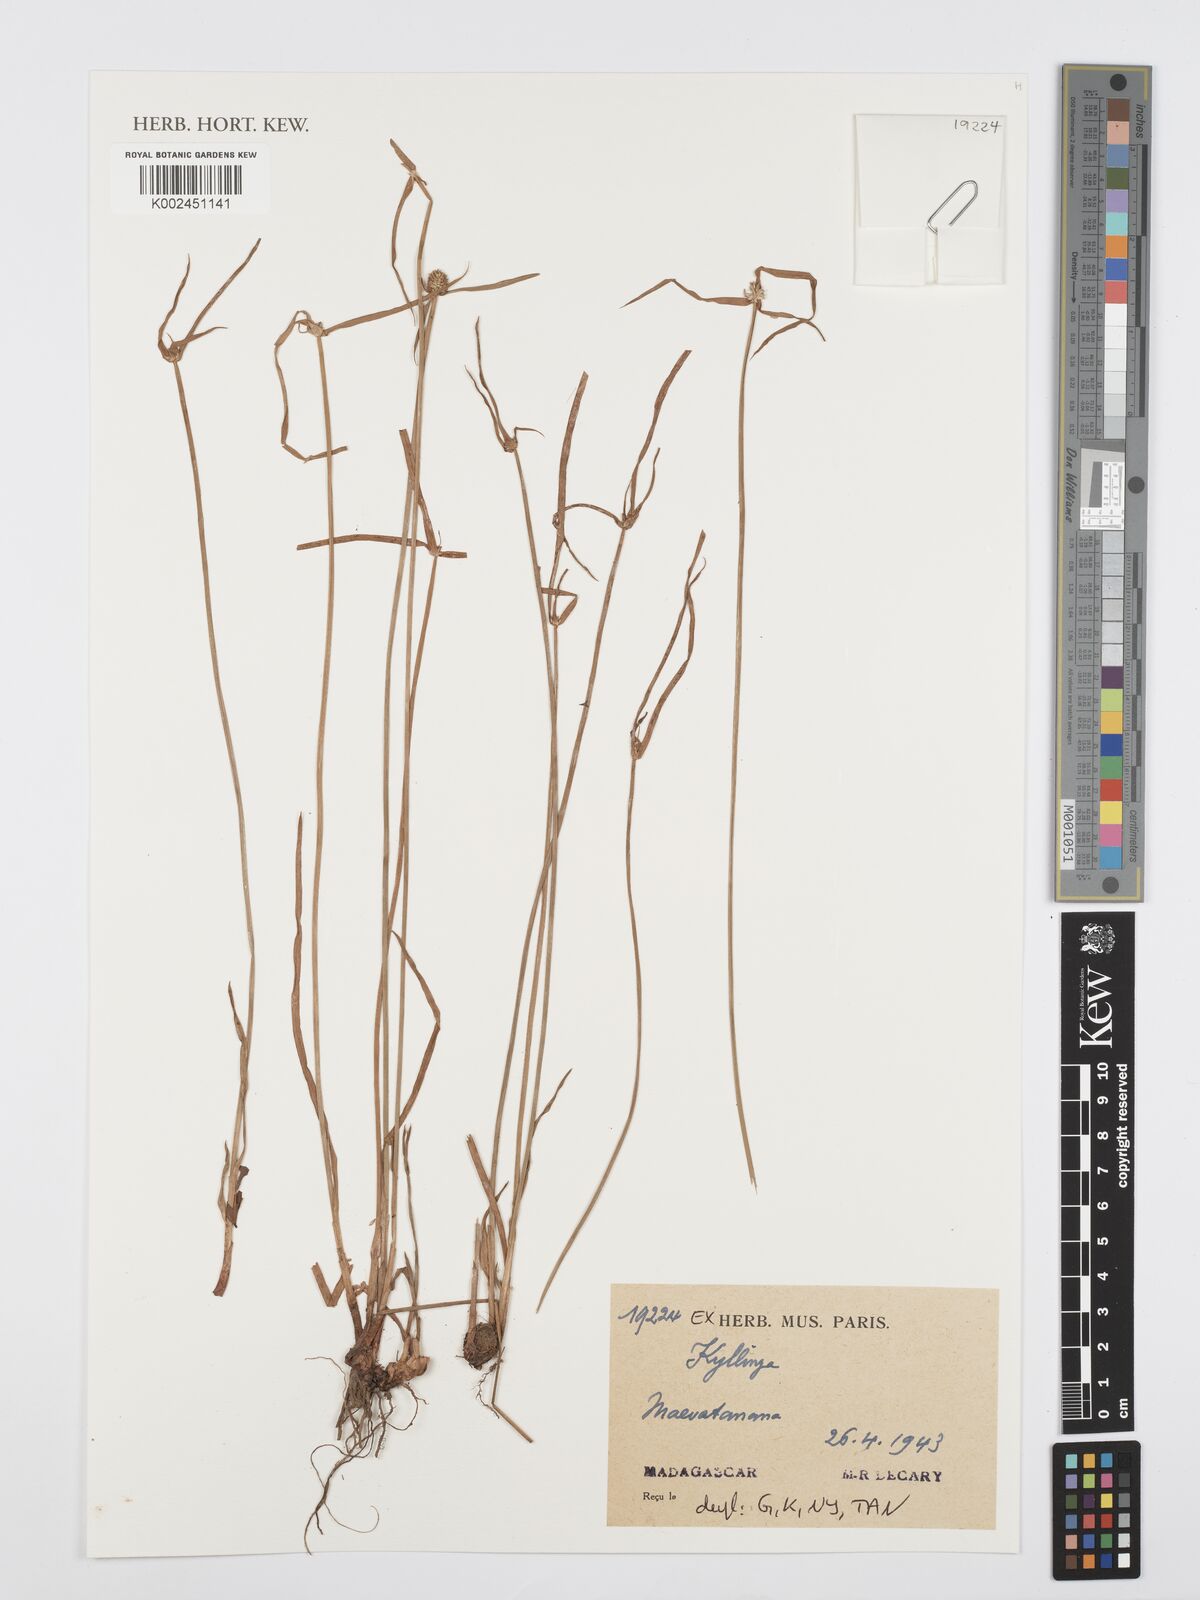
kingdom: Plantae
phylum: Tracheophyta
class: Liliopsida
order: Poales
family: Cyperaceae
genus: Cyperus
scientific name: Cyperus
